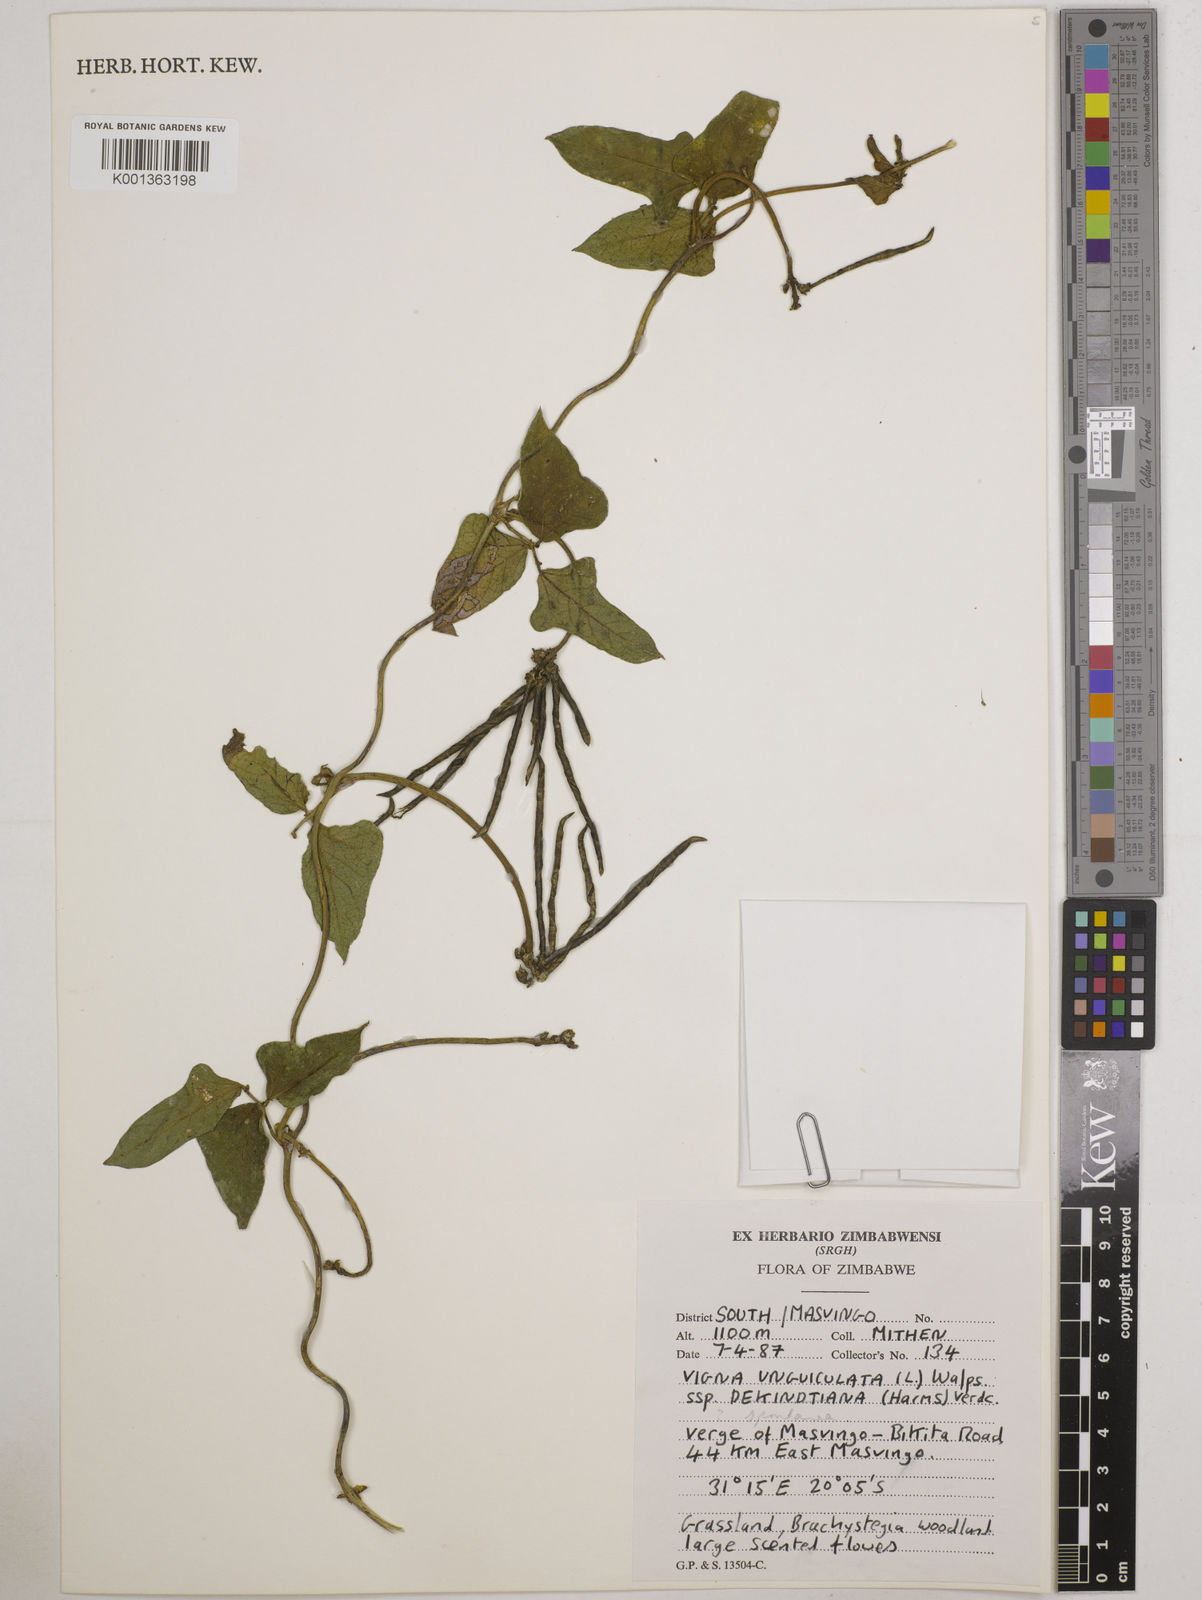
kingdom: Plantae
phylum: Tracheophyta
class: Magnoliopsida
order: Fabales
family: Fabaceae
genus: Vigna
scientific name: Vigna unguiculata
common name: Cowpea
